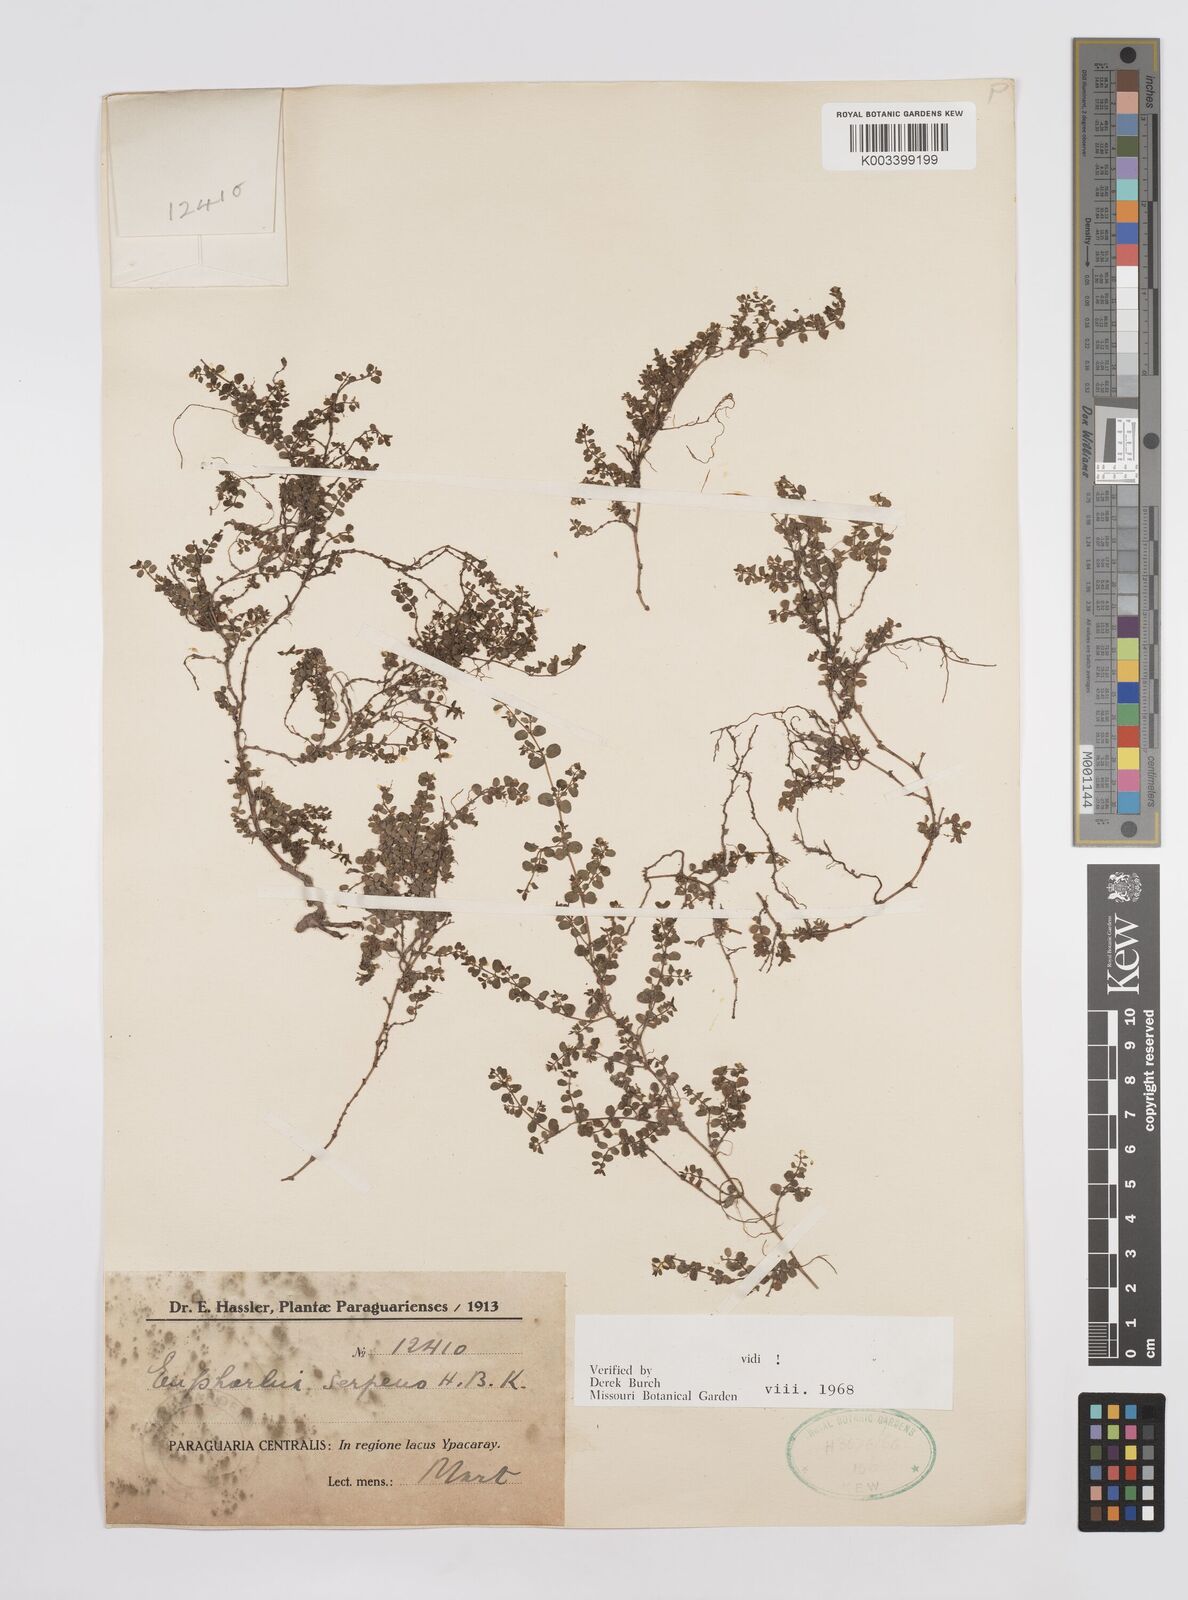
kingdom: Plantae
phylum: Tracheophyta
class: Magnoliopsida
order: Malpighiales
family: Euphorbiaceae
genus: Euphorbia
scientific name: Euphorbia serpens
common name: Matted sandmat
